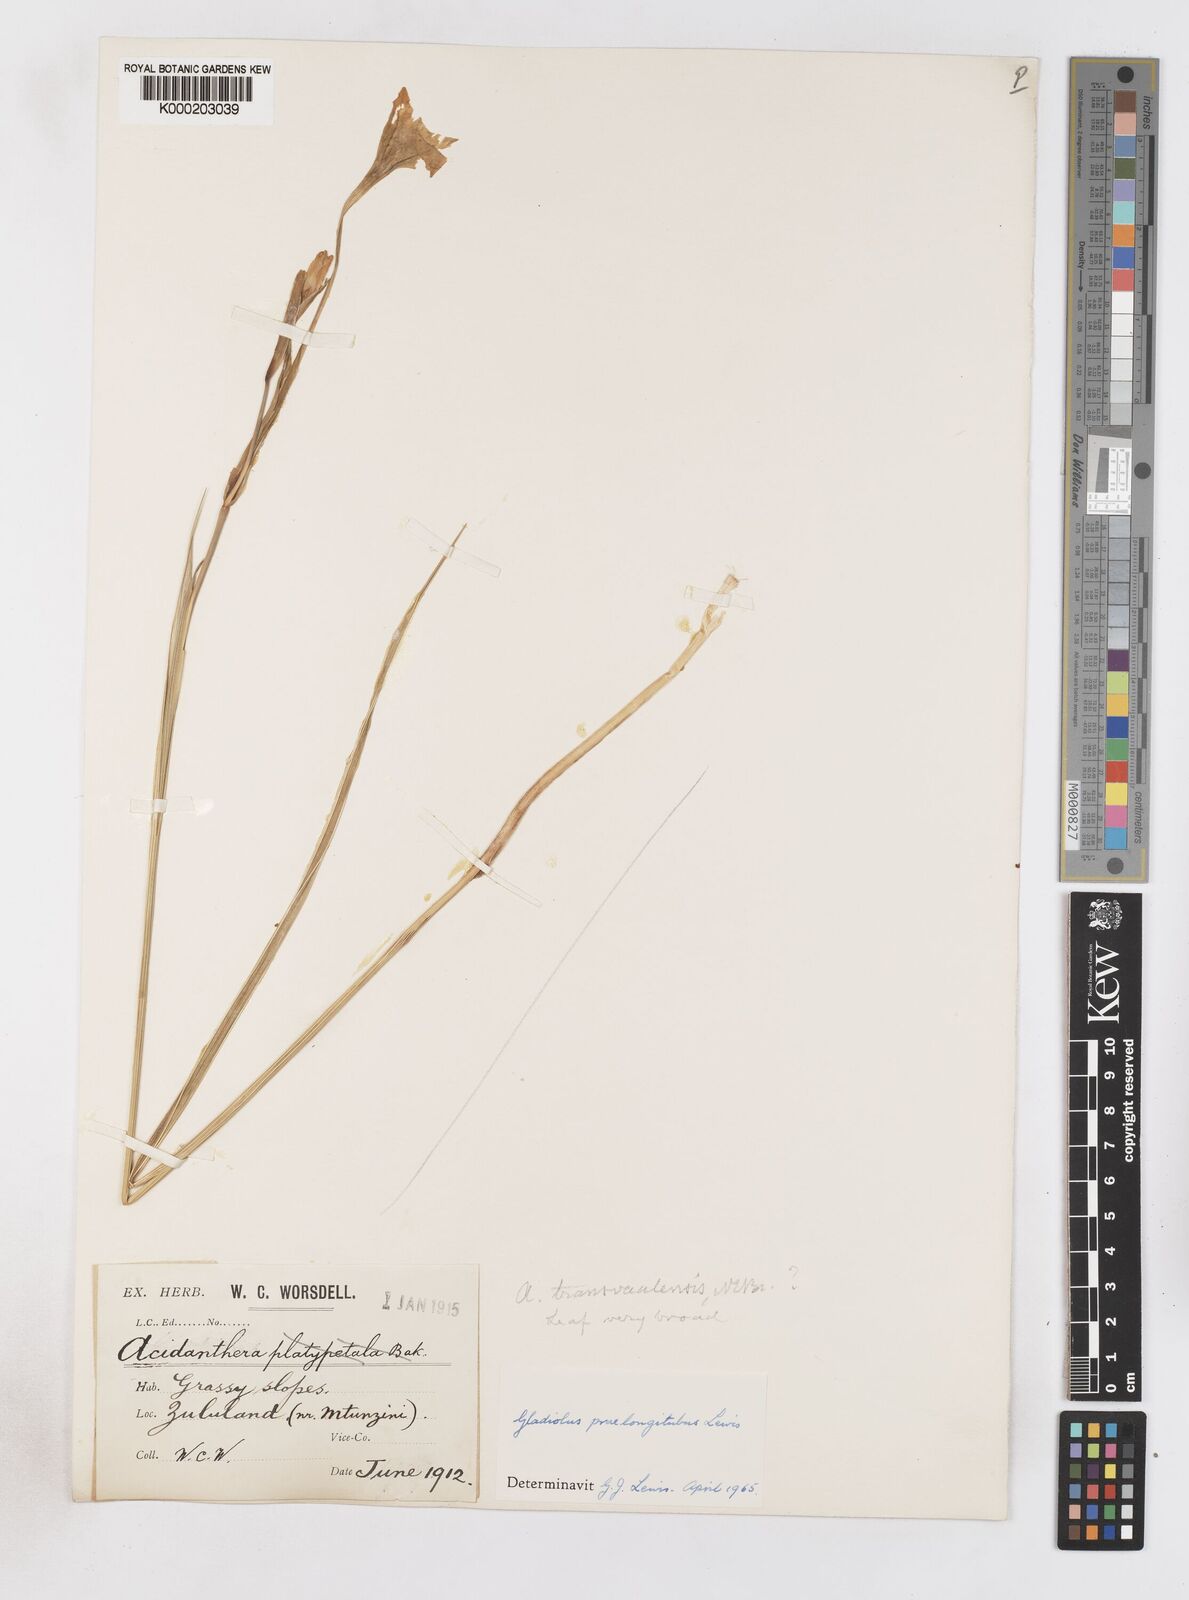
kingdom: Plantae
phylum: Tracheophyta
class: Liliopsida
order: Asparagales
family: Iridaceae
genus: Gladiolus
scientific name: Gladiolus longicollis
